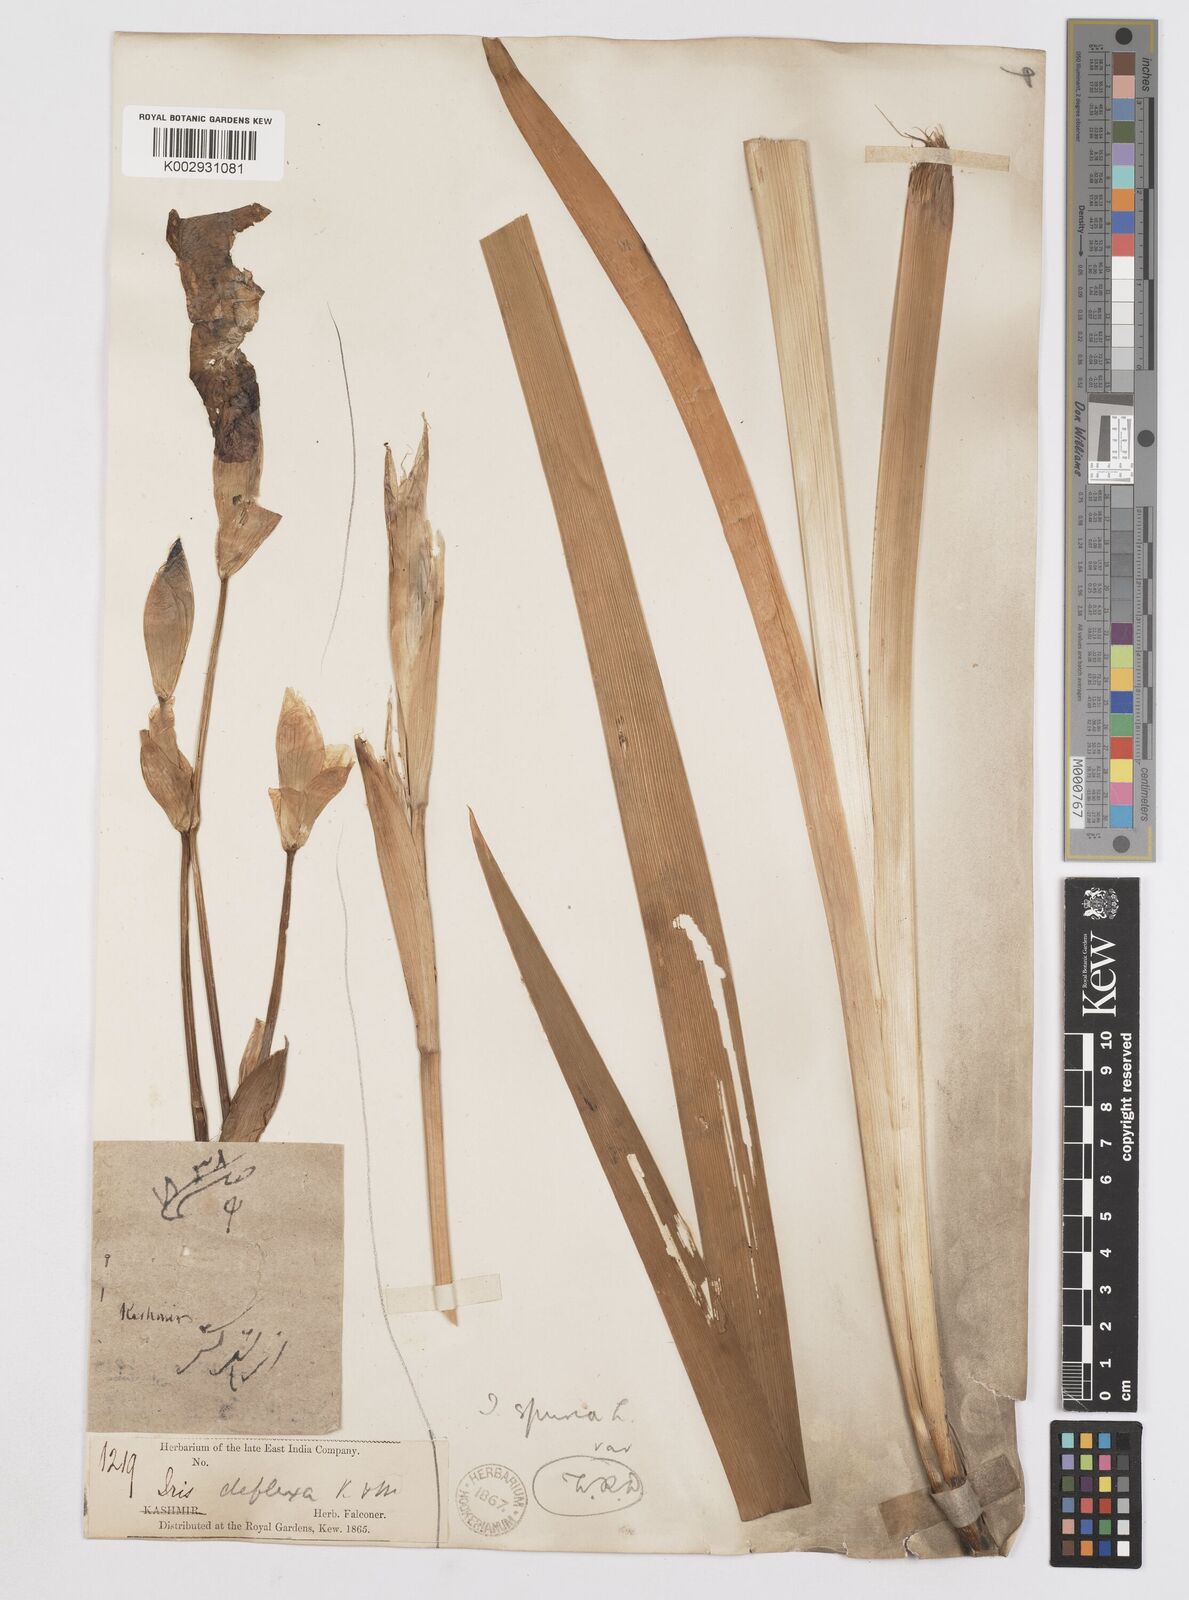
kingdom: Plantae
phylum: Tracheophyta
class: Liliopsida
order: Asparagales
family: Iridaceae
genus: Iris
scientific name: Iris spuria
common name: Blue iris
